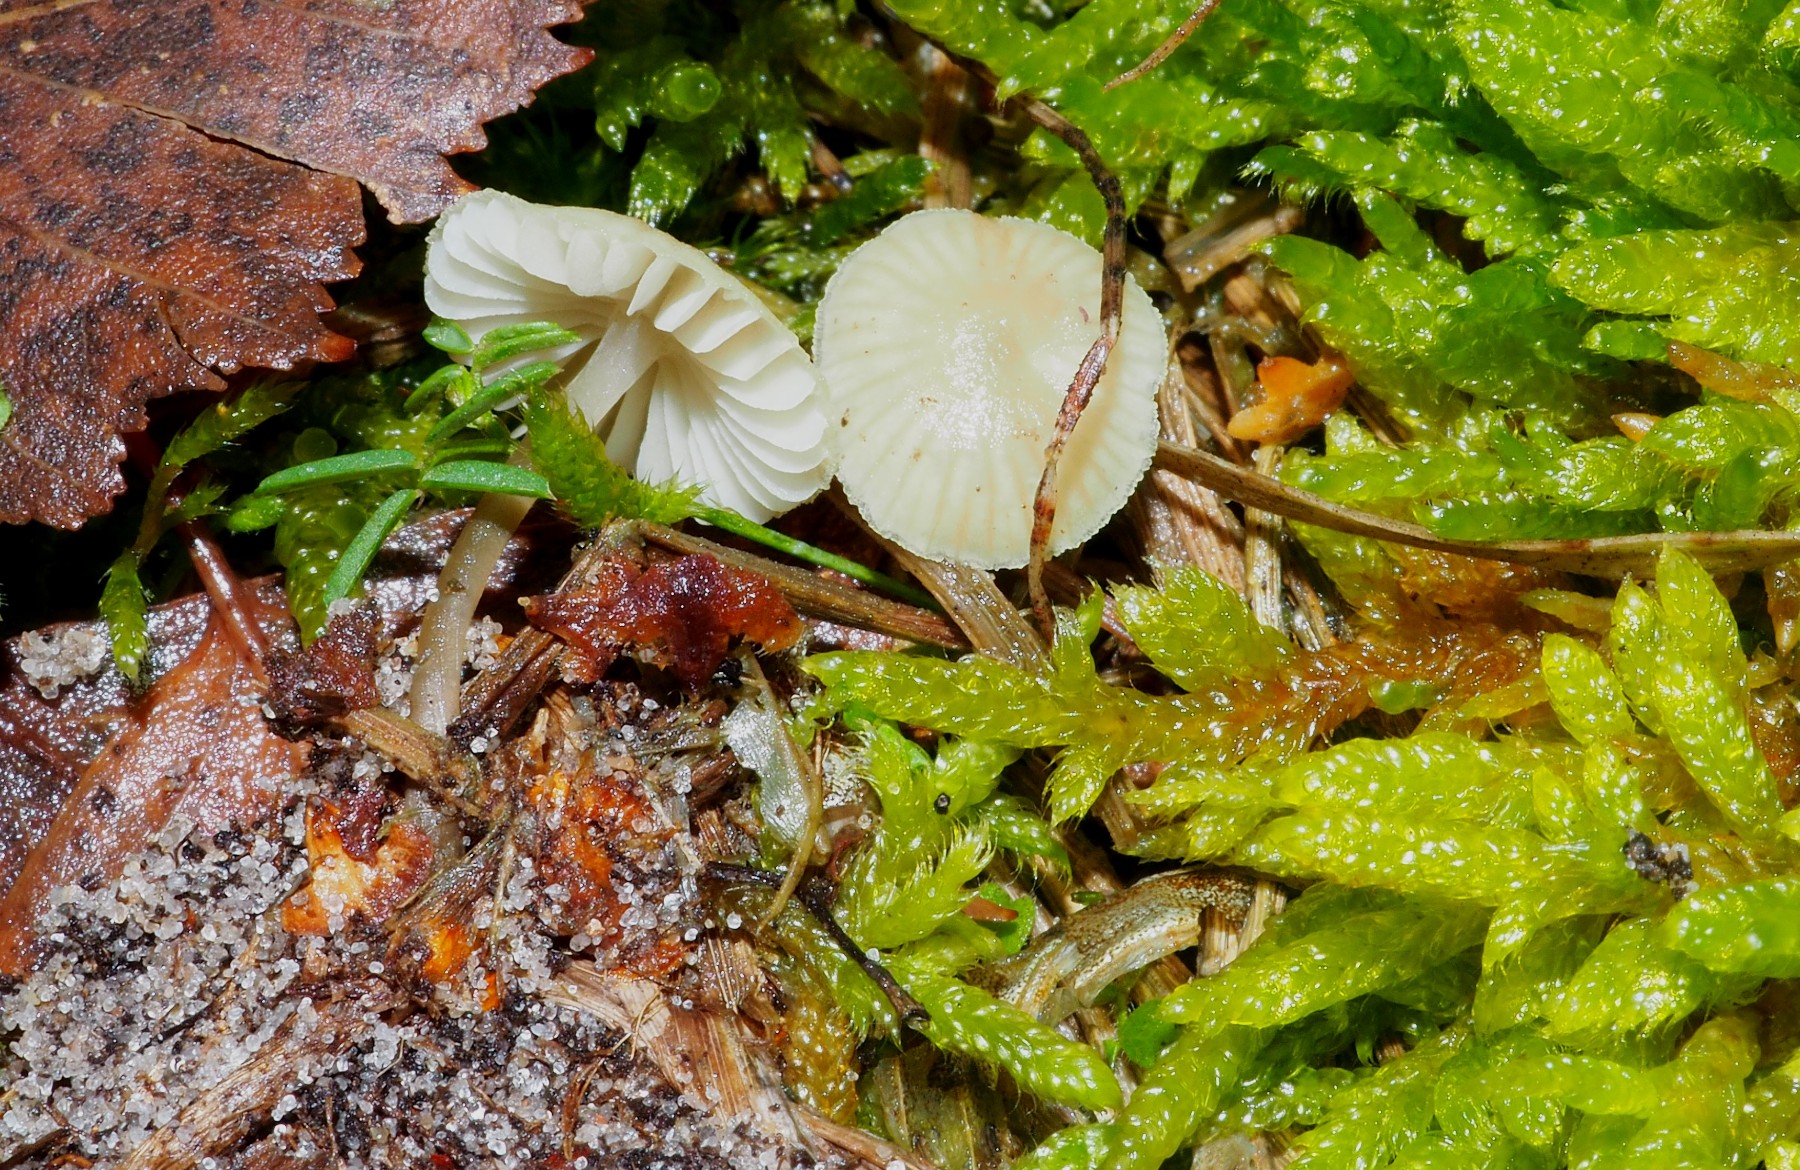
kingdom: Fungi
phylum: Basidiomycota
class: Agaricomycetes
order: Agaricales
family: Mycenaceae
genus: Mycena
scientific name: Mycena chlorantha
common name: klit-huesvamp
